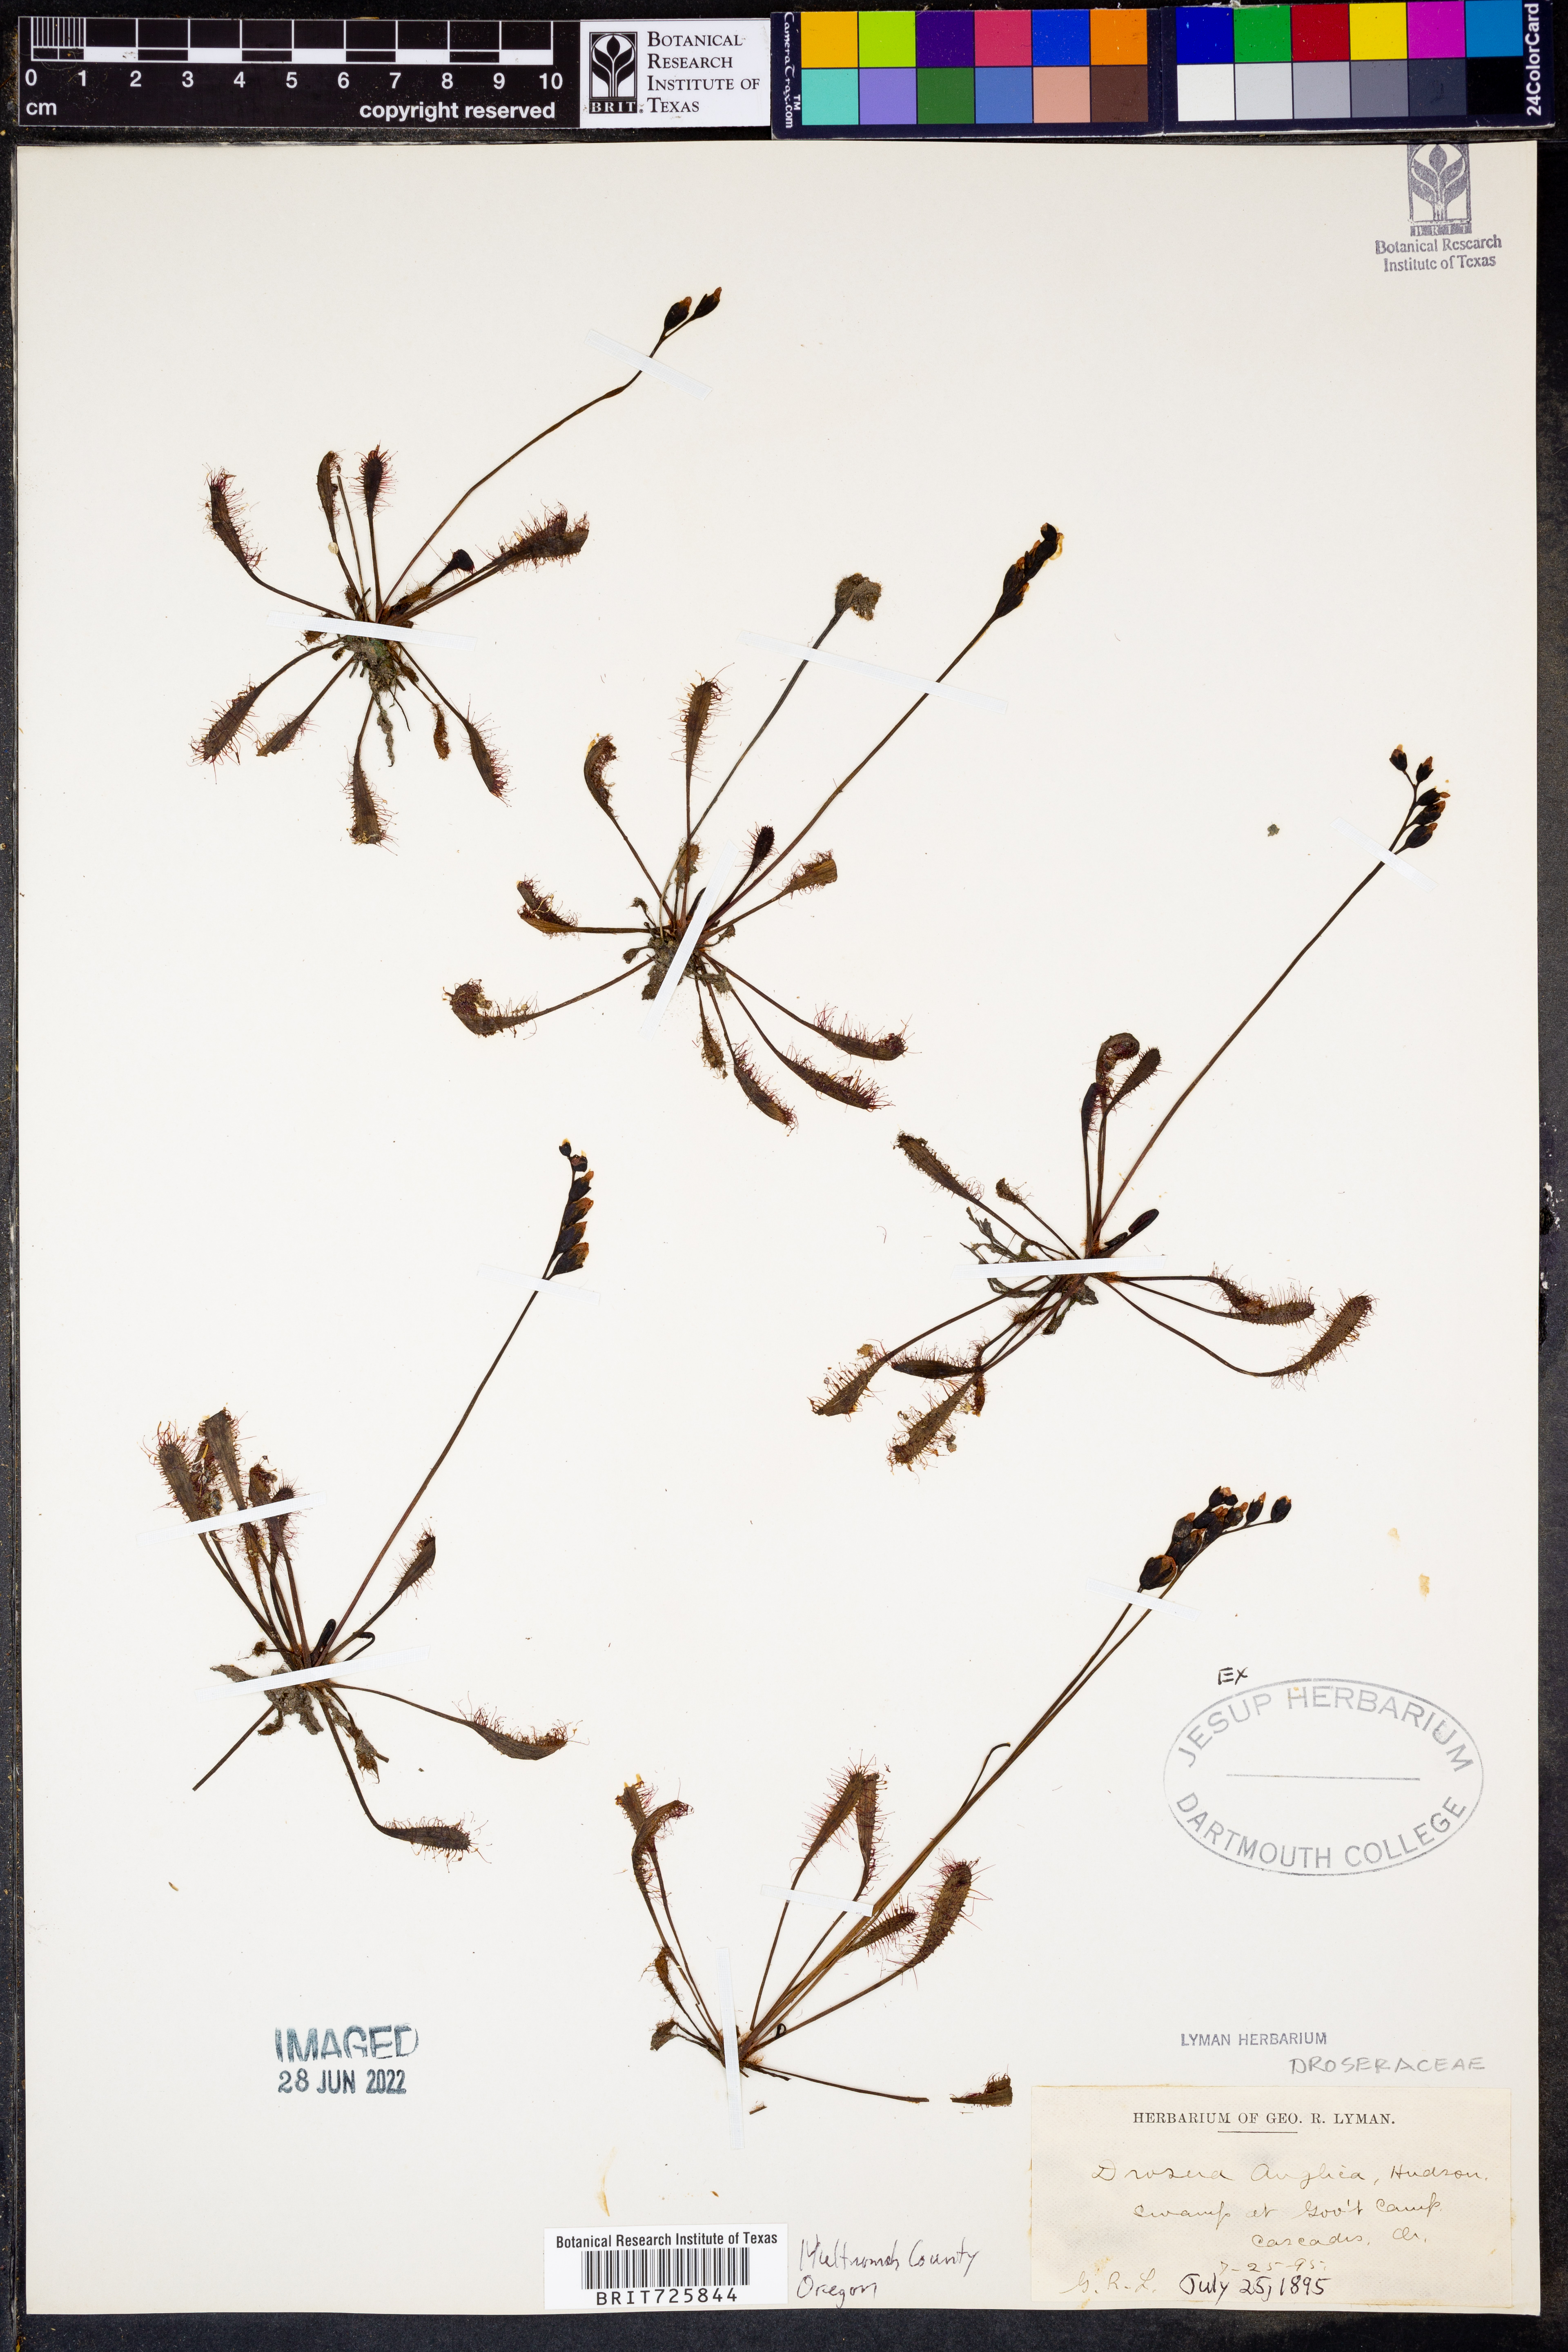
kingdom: Plantae
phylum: Tracheophyta
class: Magnoliopsida
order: Caryophyllales
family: Droseraceae
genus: Drosera
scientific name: Drosera anglica
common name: Great sundew
